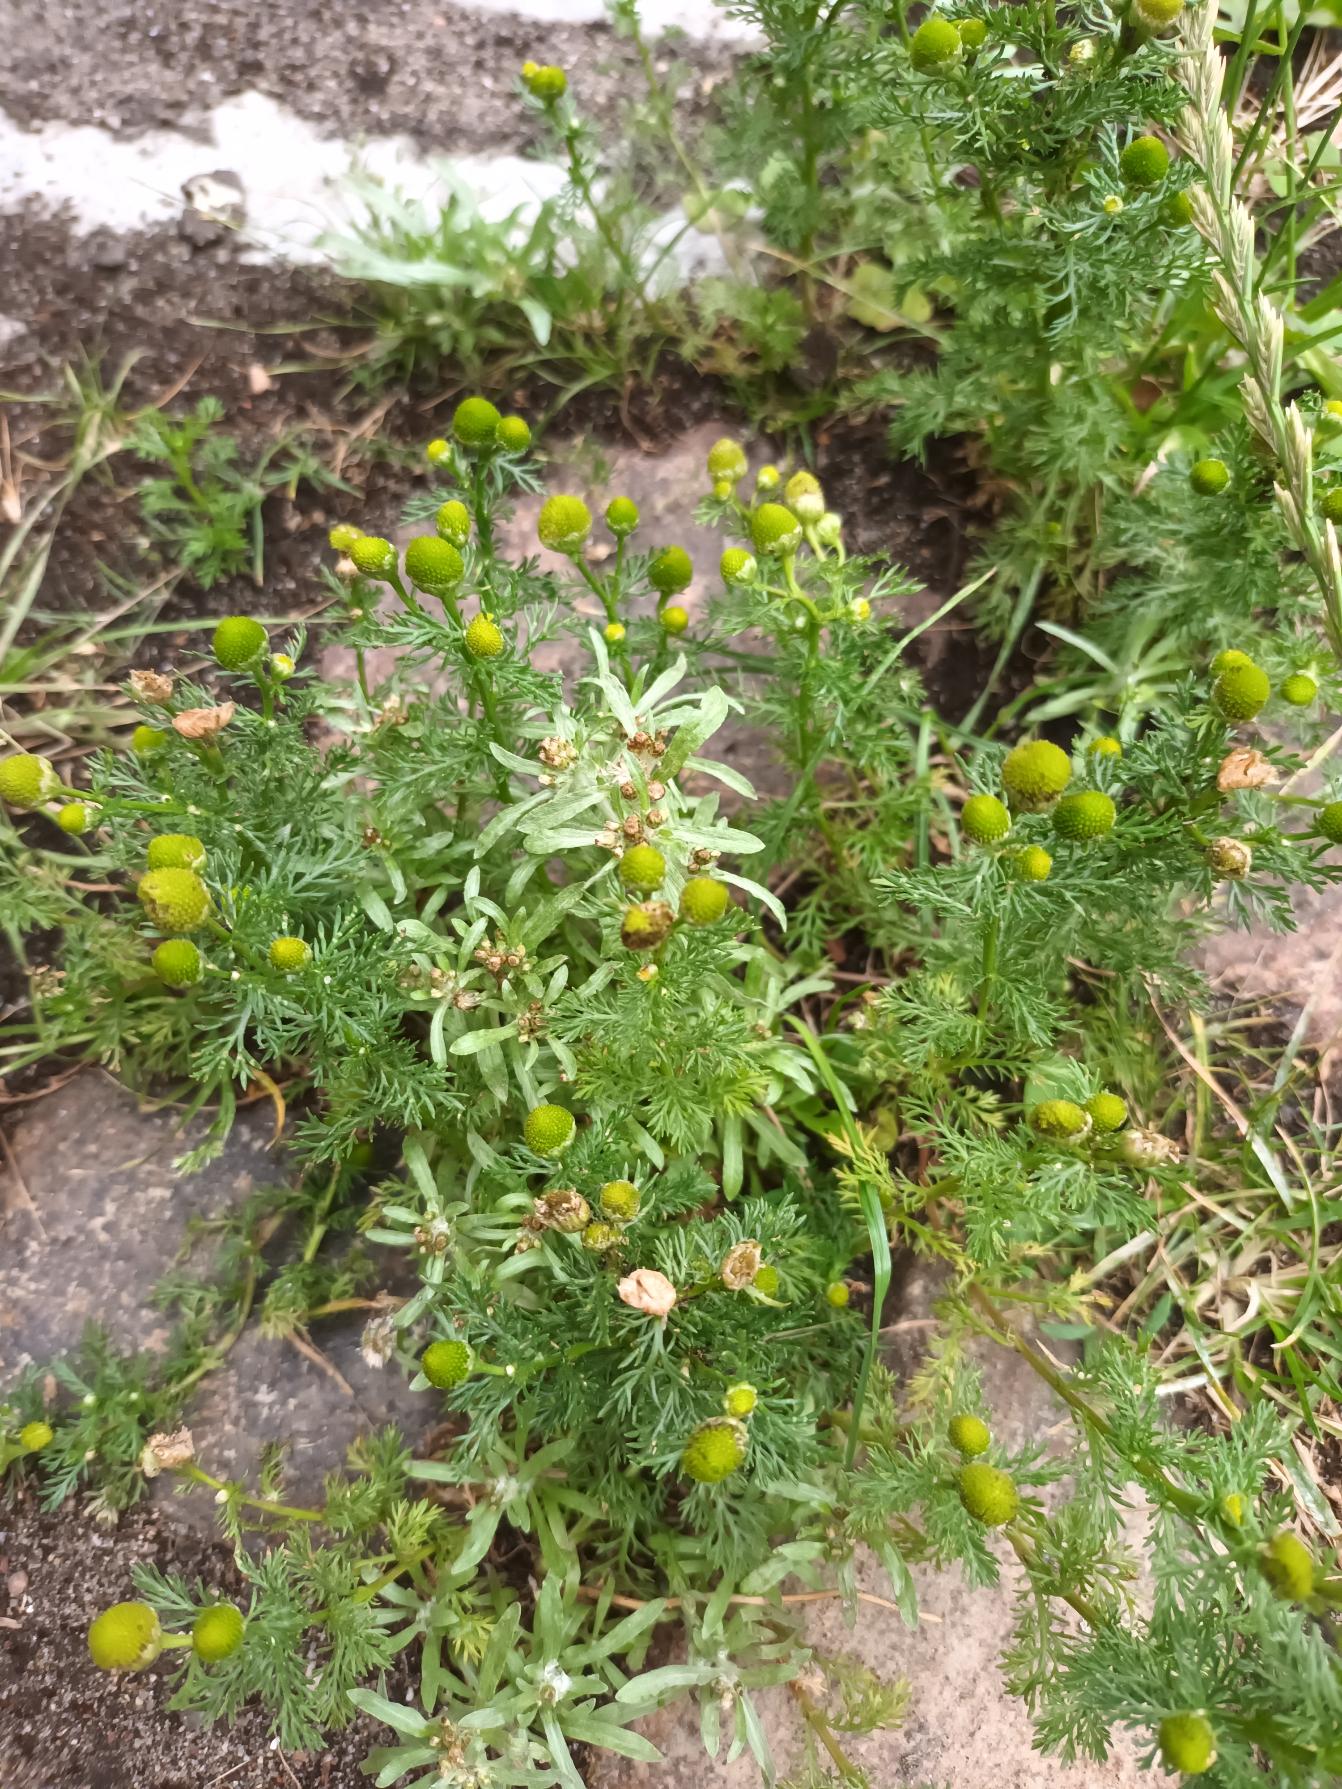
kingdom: Plantae
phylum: Tracheophyta
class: Magnoliopsida
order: Asterales
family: Asteraceae
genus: Matricaria
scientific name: Matricaria discoidea
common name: Skive-kamille
